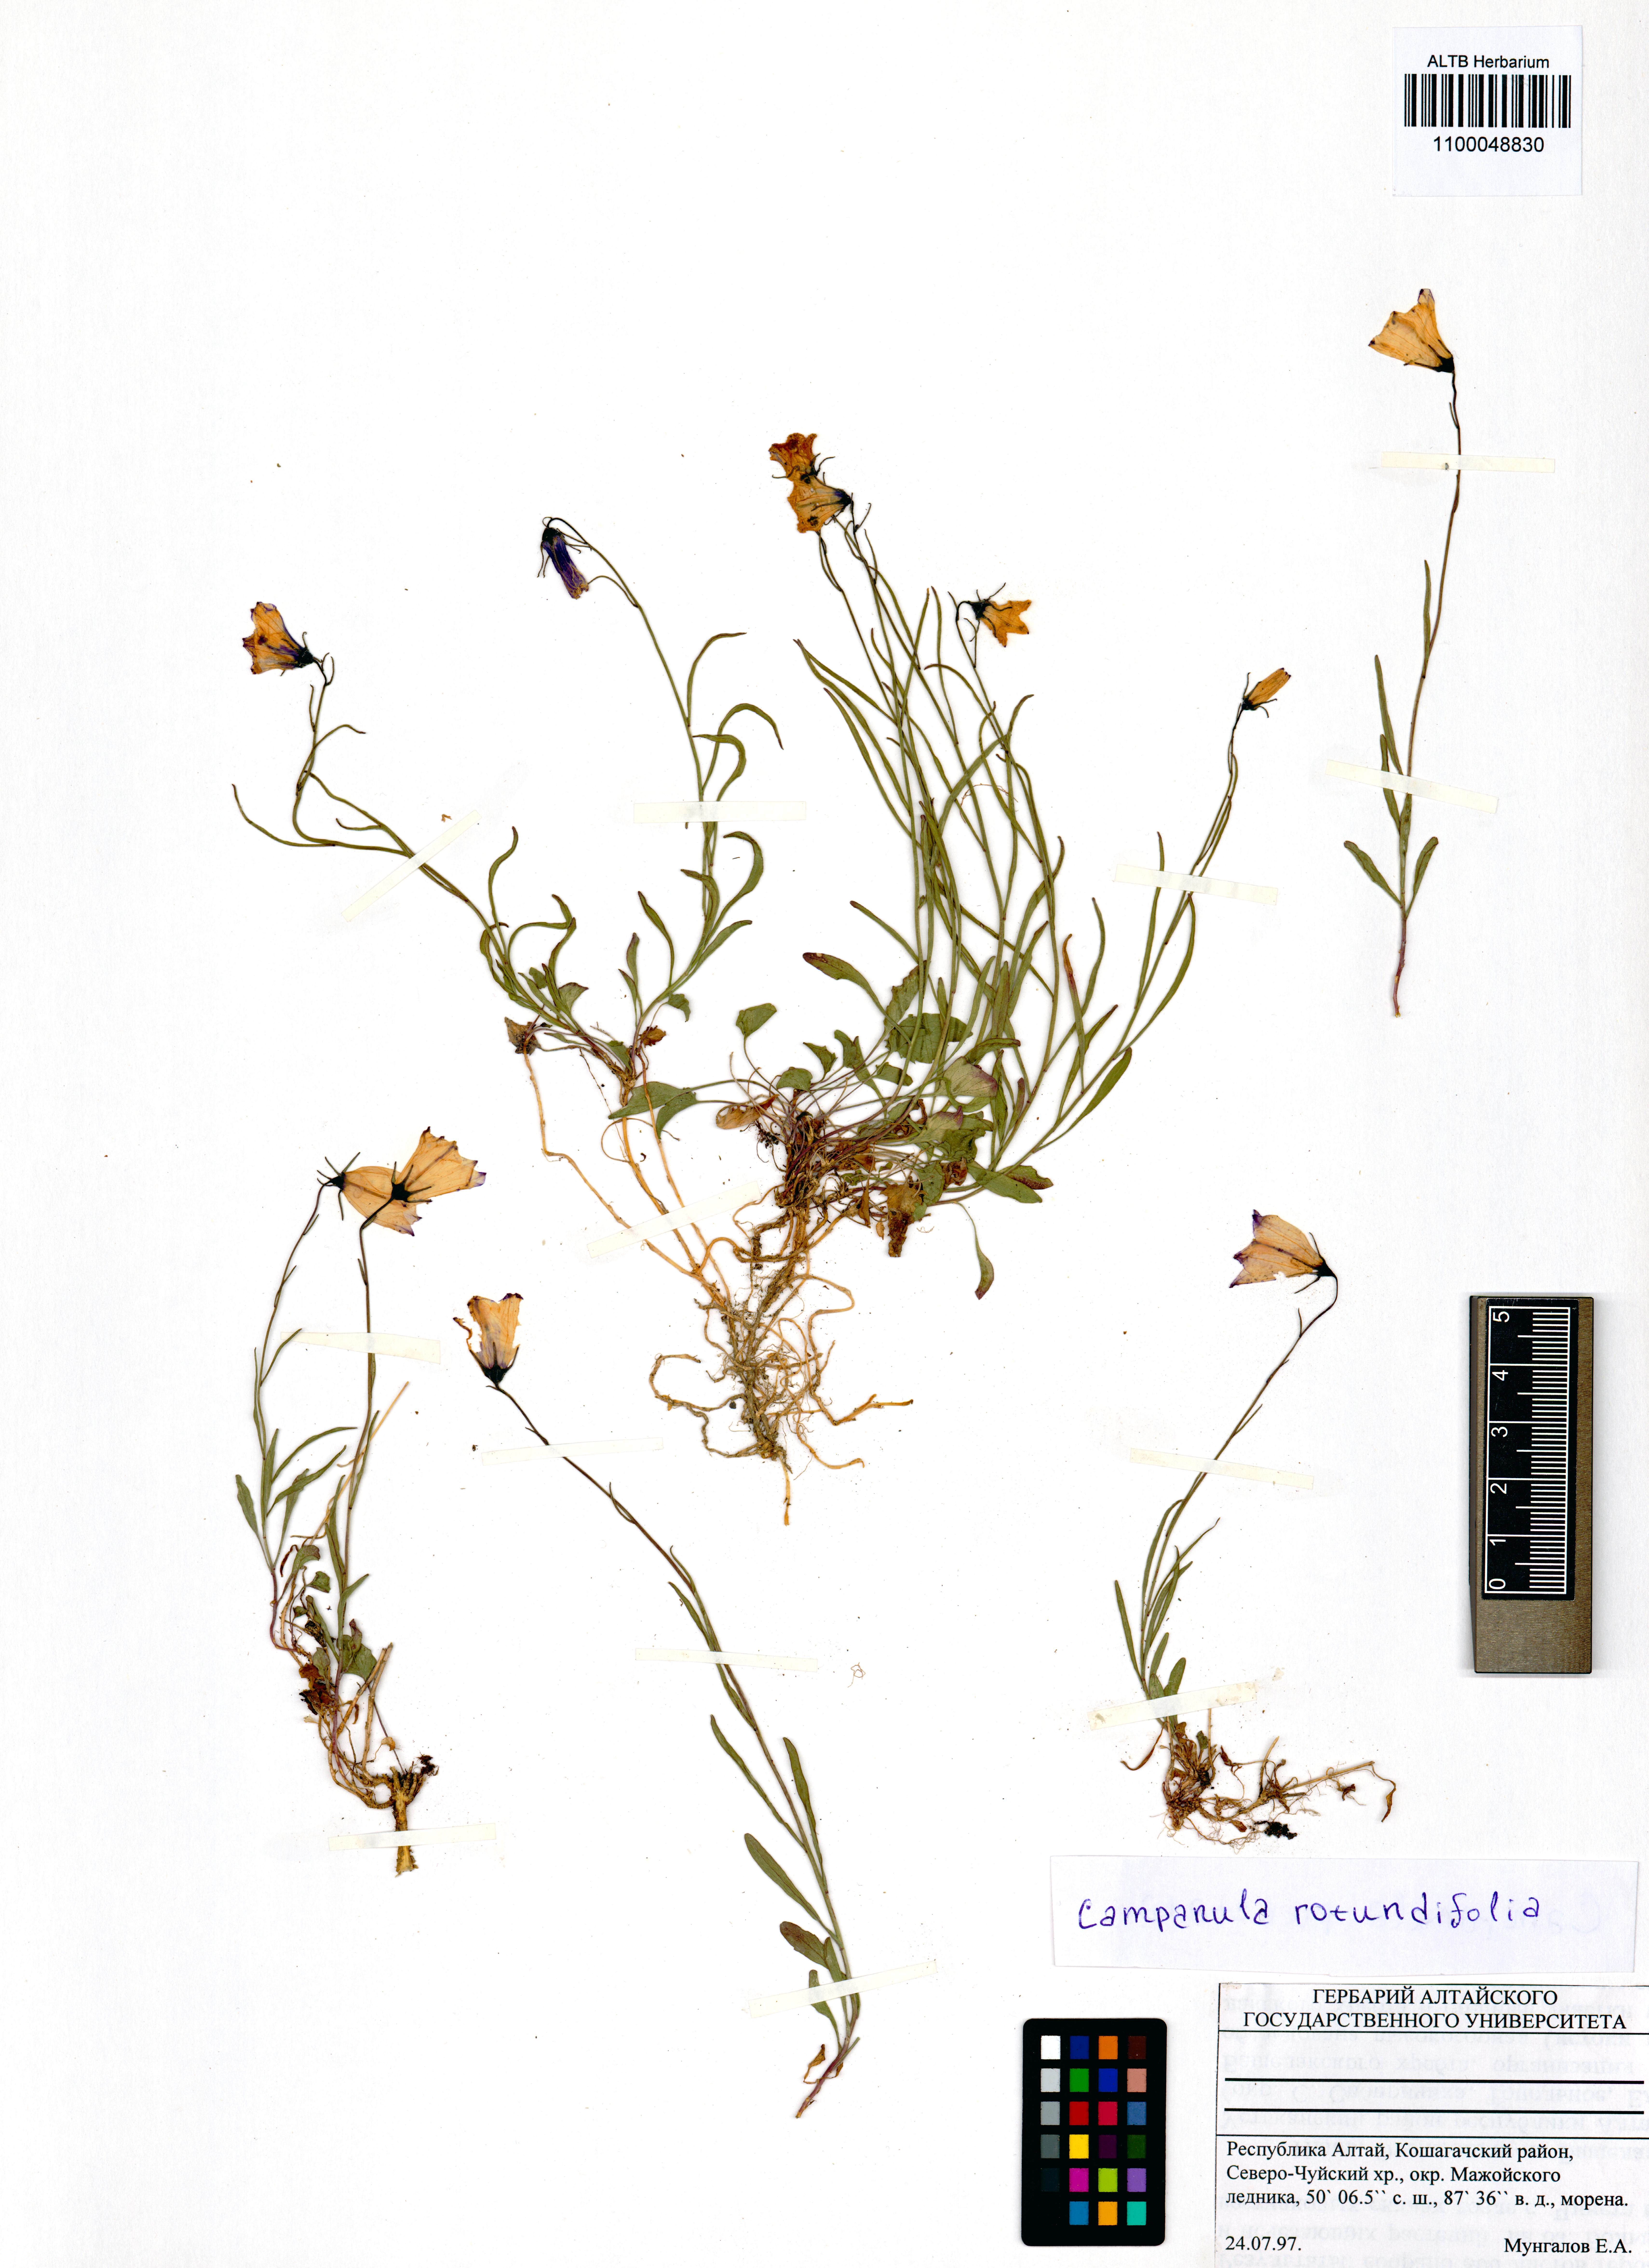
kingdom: Plantae
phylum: Tracheophyta
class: Magnoliopsida
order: Asterales
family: Campanulaceae
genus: Campanula
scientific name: Campanula rotundifolia
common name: Harebell
